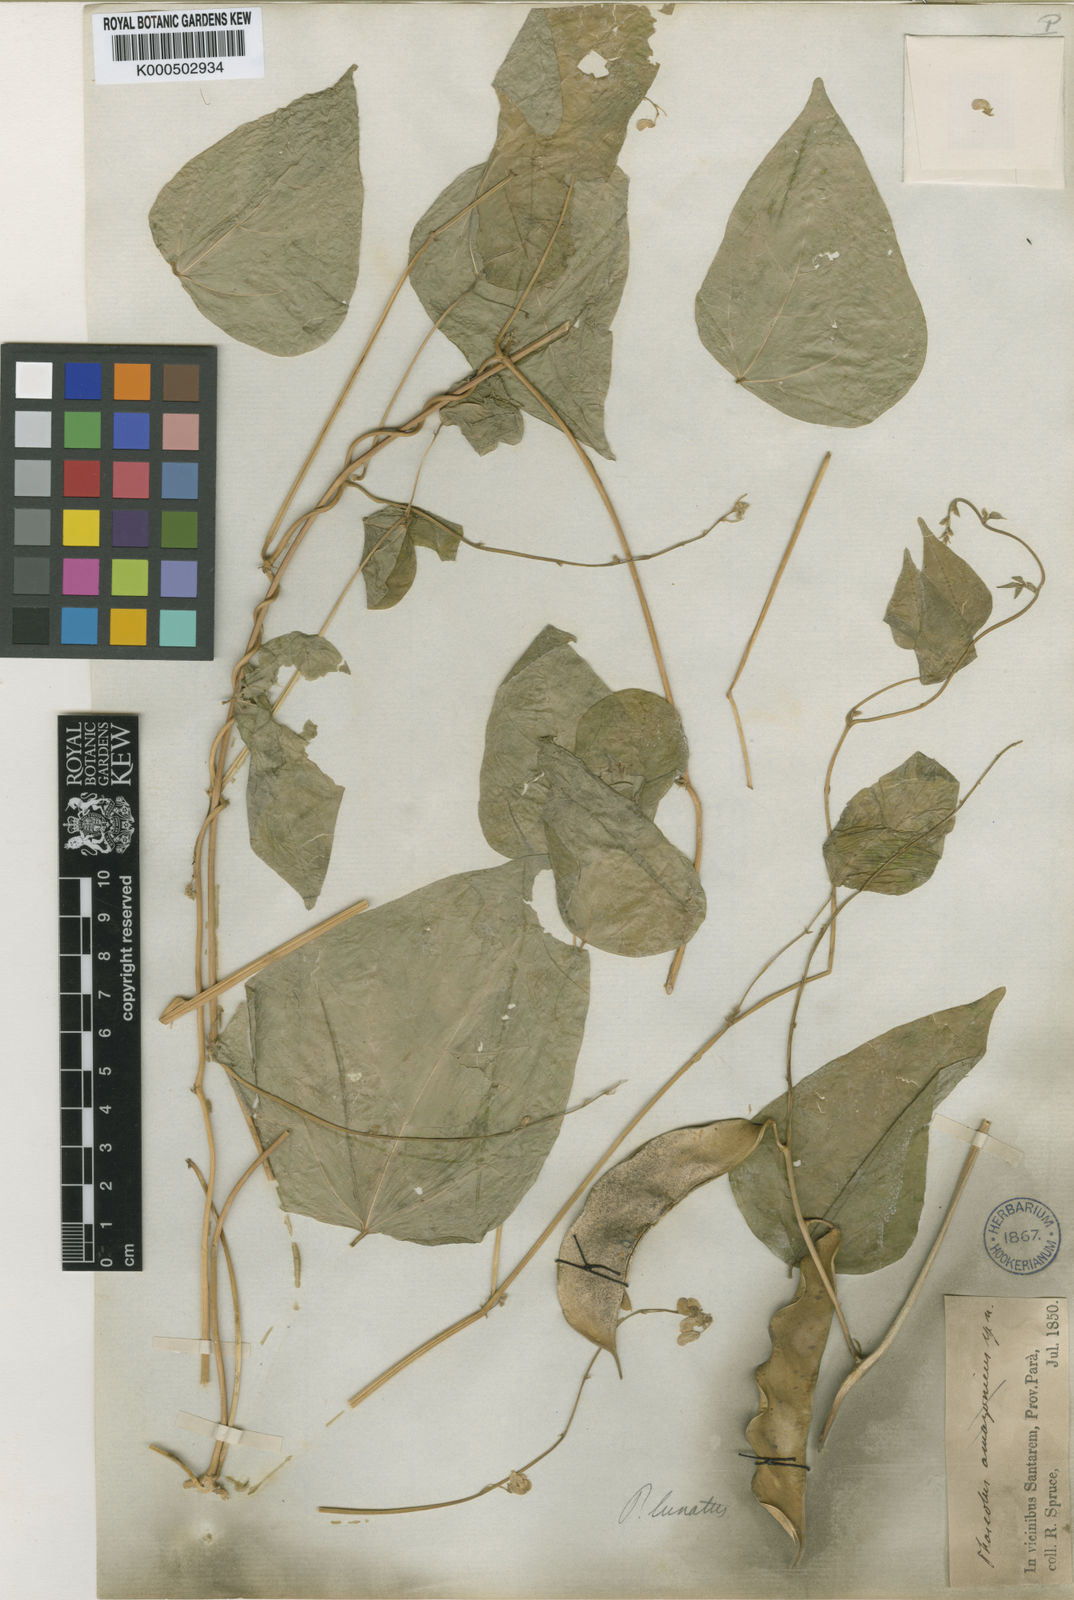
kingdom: Plantae
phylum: Tracheophyta
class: Magnoliopsida
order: Fabales
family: Fabaceae
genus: Phaseolus
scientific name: Phaseolus lunatus
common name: Sieva bean
